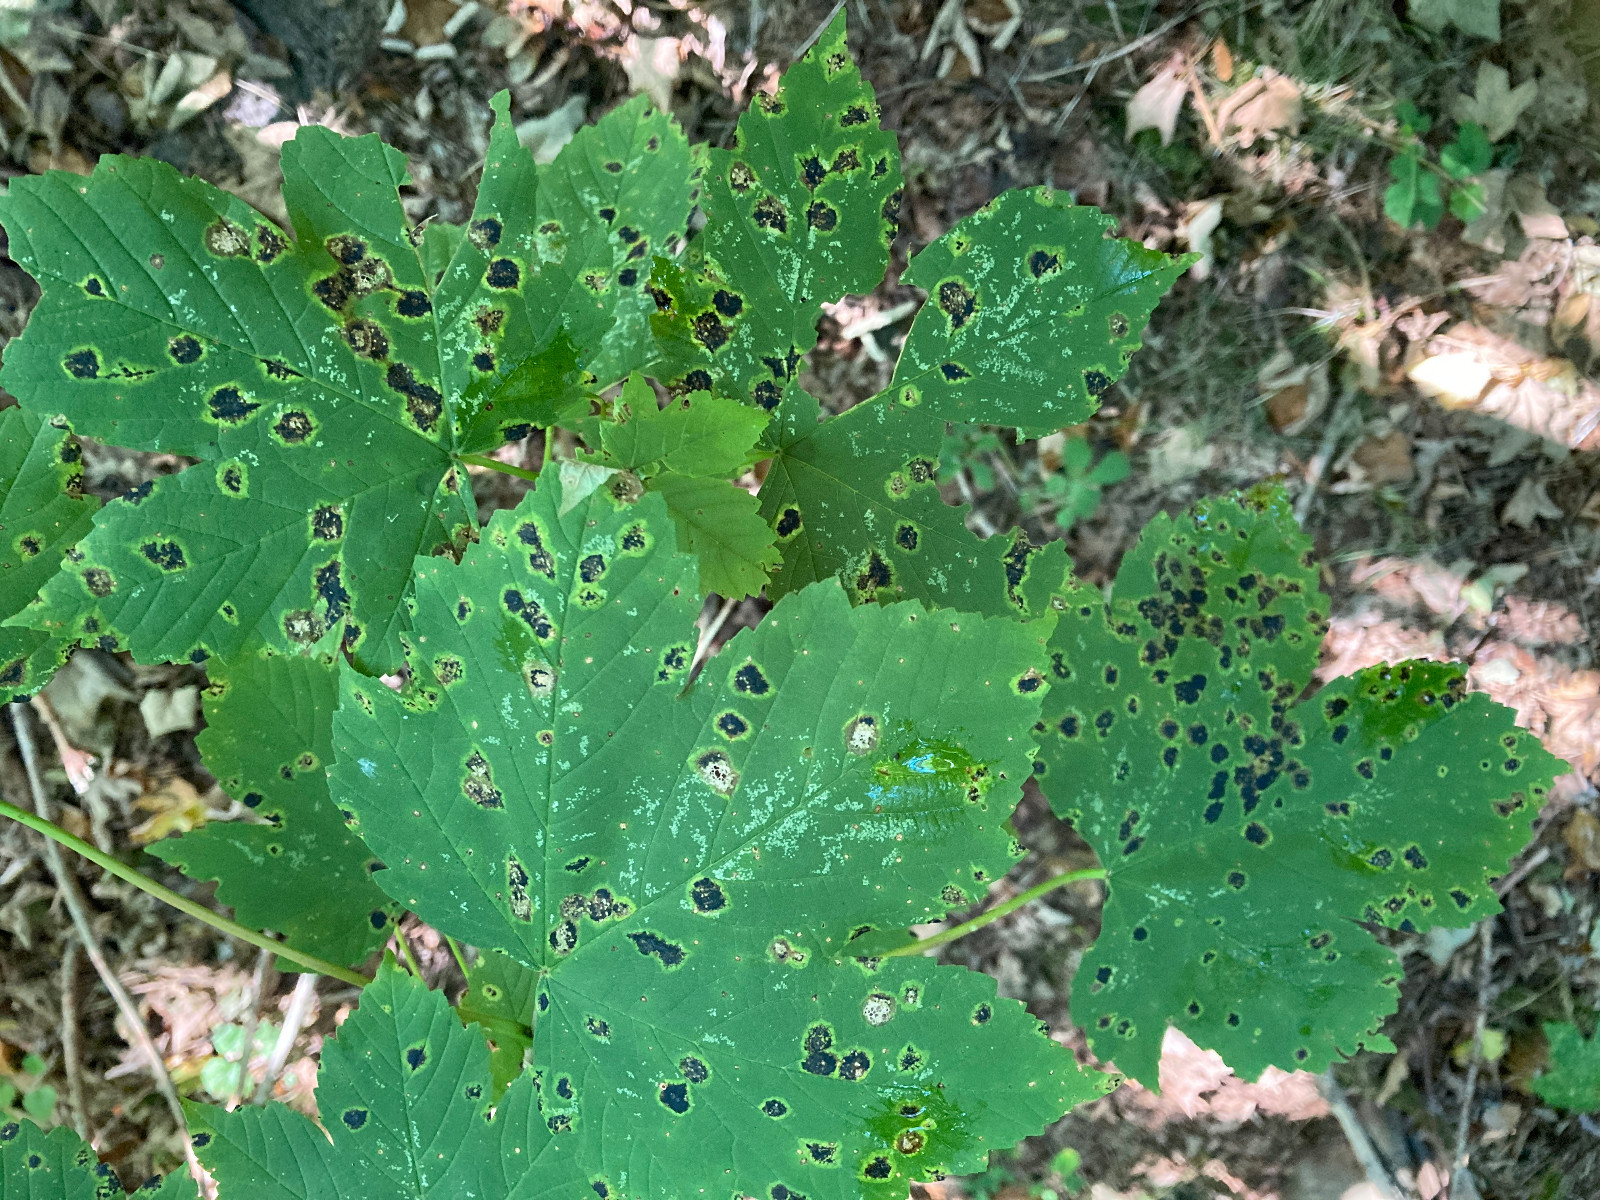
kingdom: Fungi
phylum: Ascomycota
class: Leotiomycetes
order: Rhytismatales
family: Rhytismataceae
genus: Rhytisma
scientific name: Rhytisma acerinum
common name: ahorn-rynkeplet
